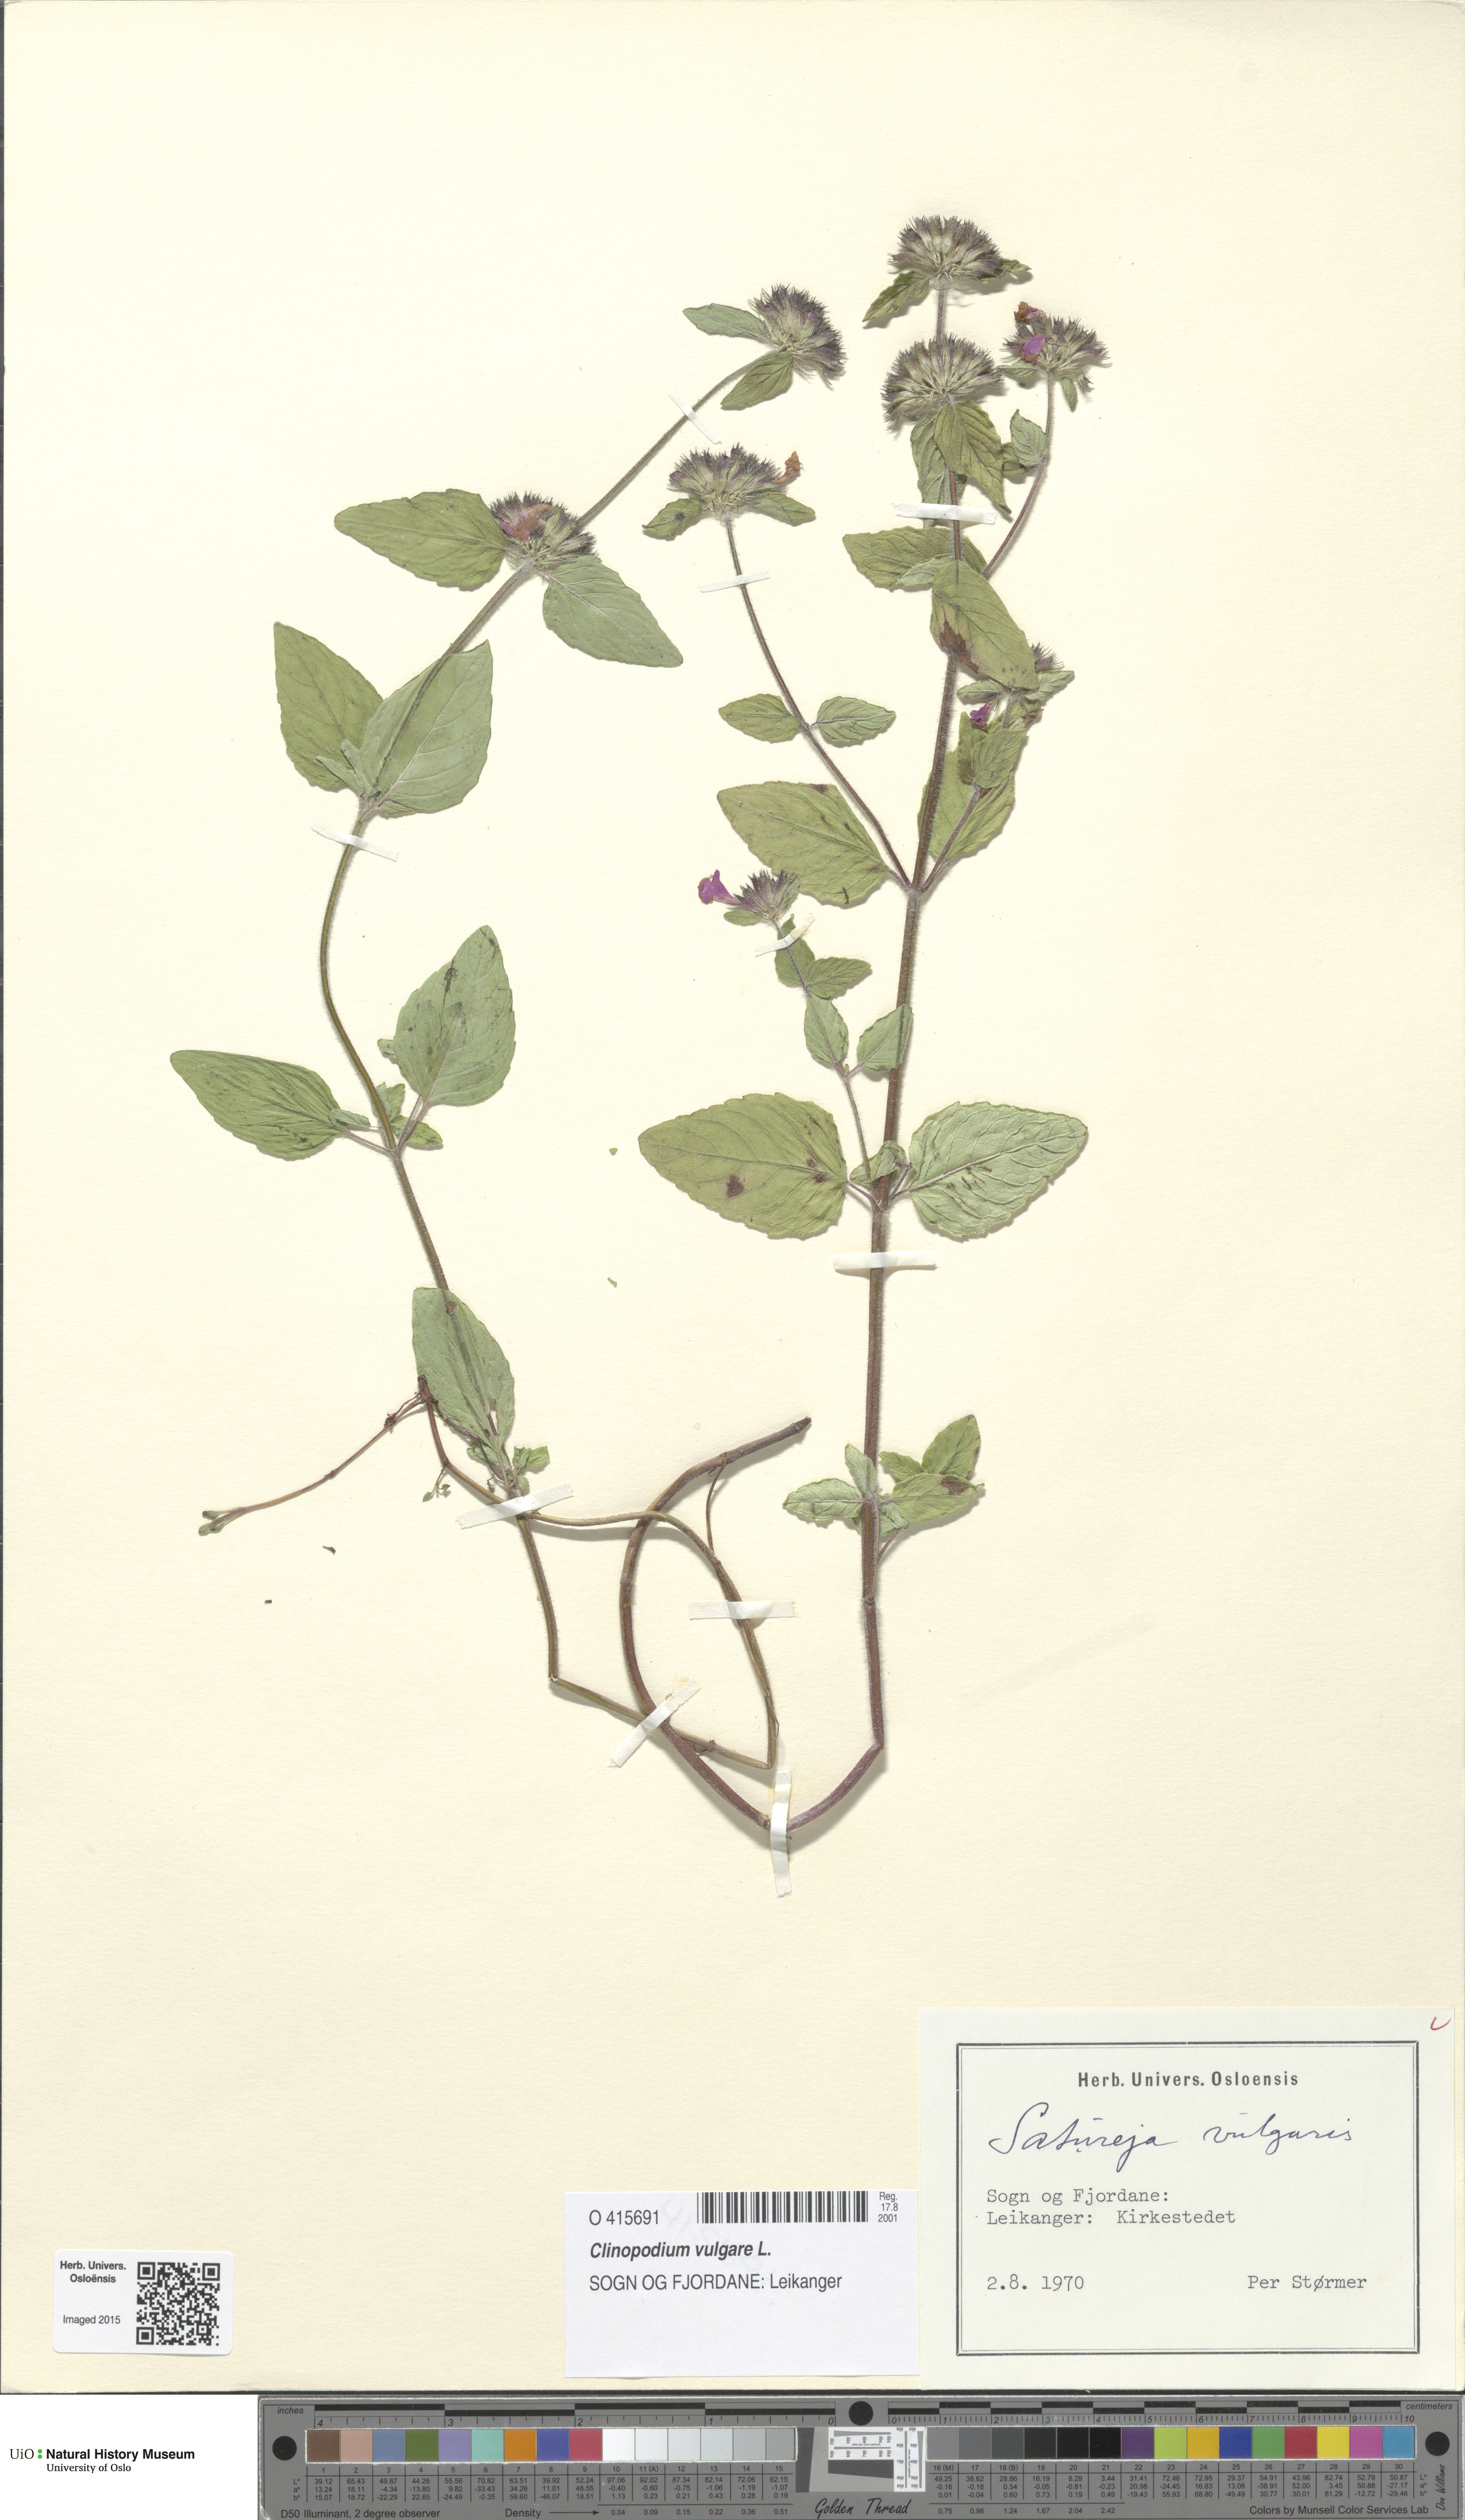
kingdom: Plantae
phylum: Tracheophyta
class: Magnoliopsida
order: Lamiales
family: Lamiaceae
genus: Clinopodium
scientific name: Clinopodium vulgare
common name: Wild basil
